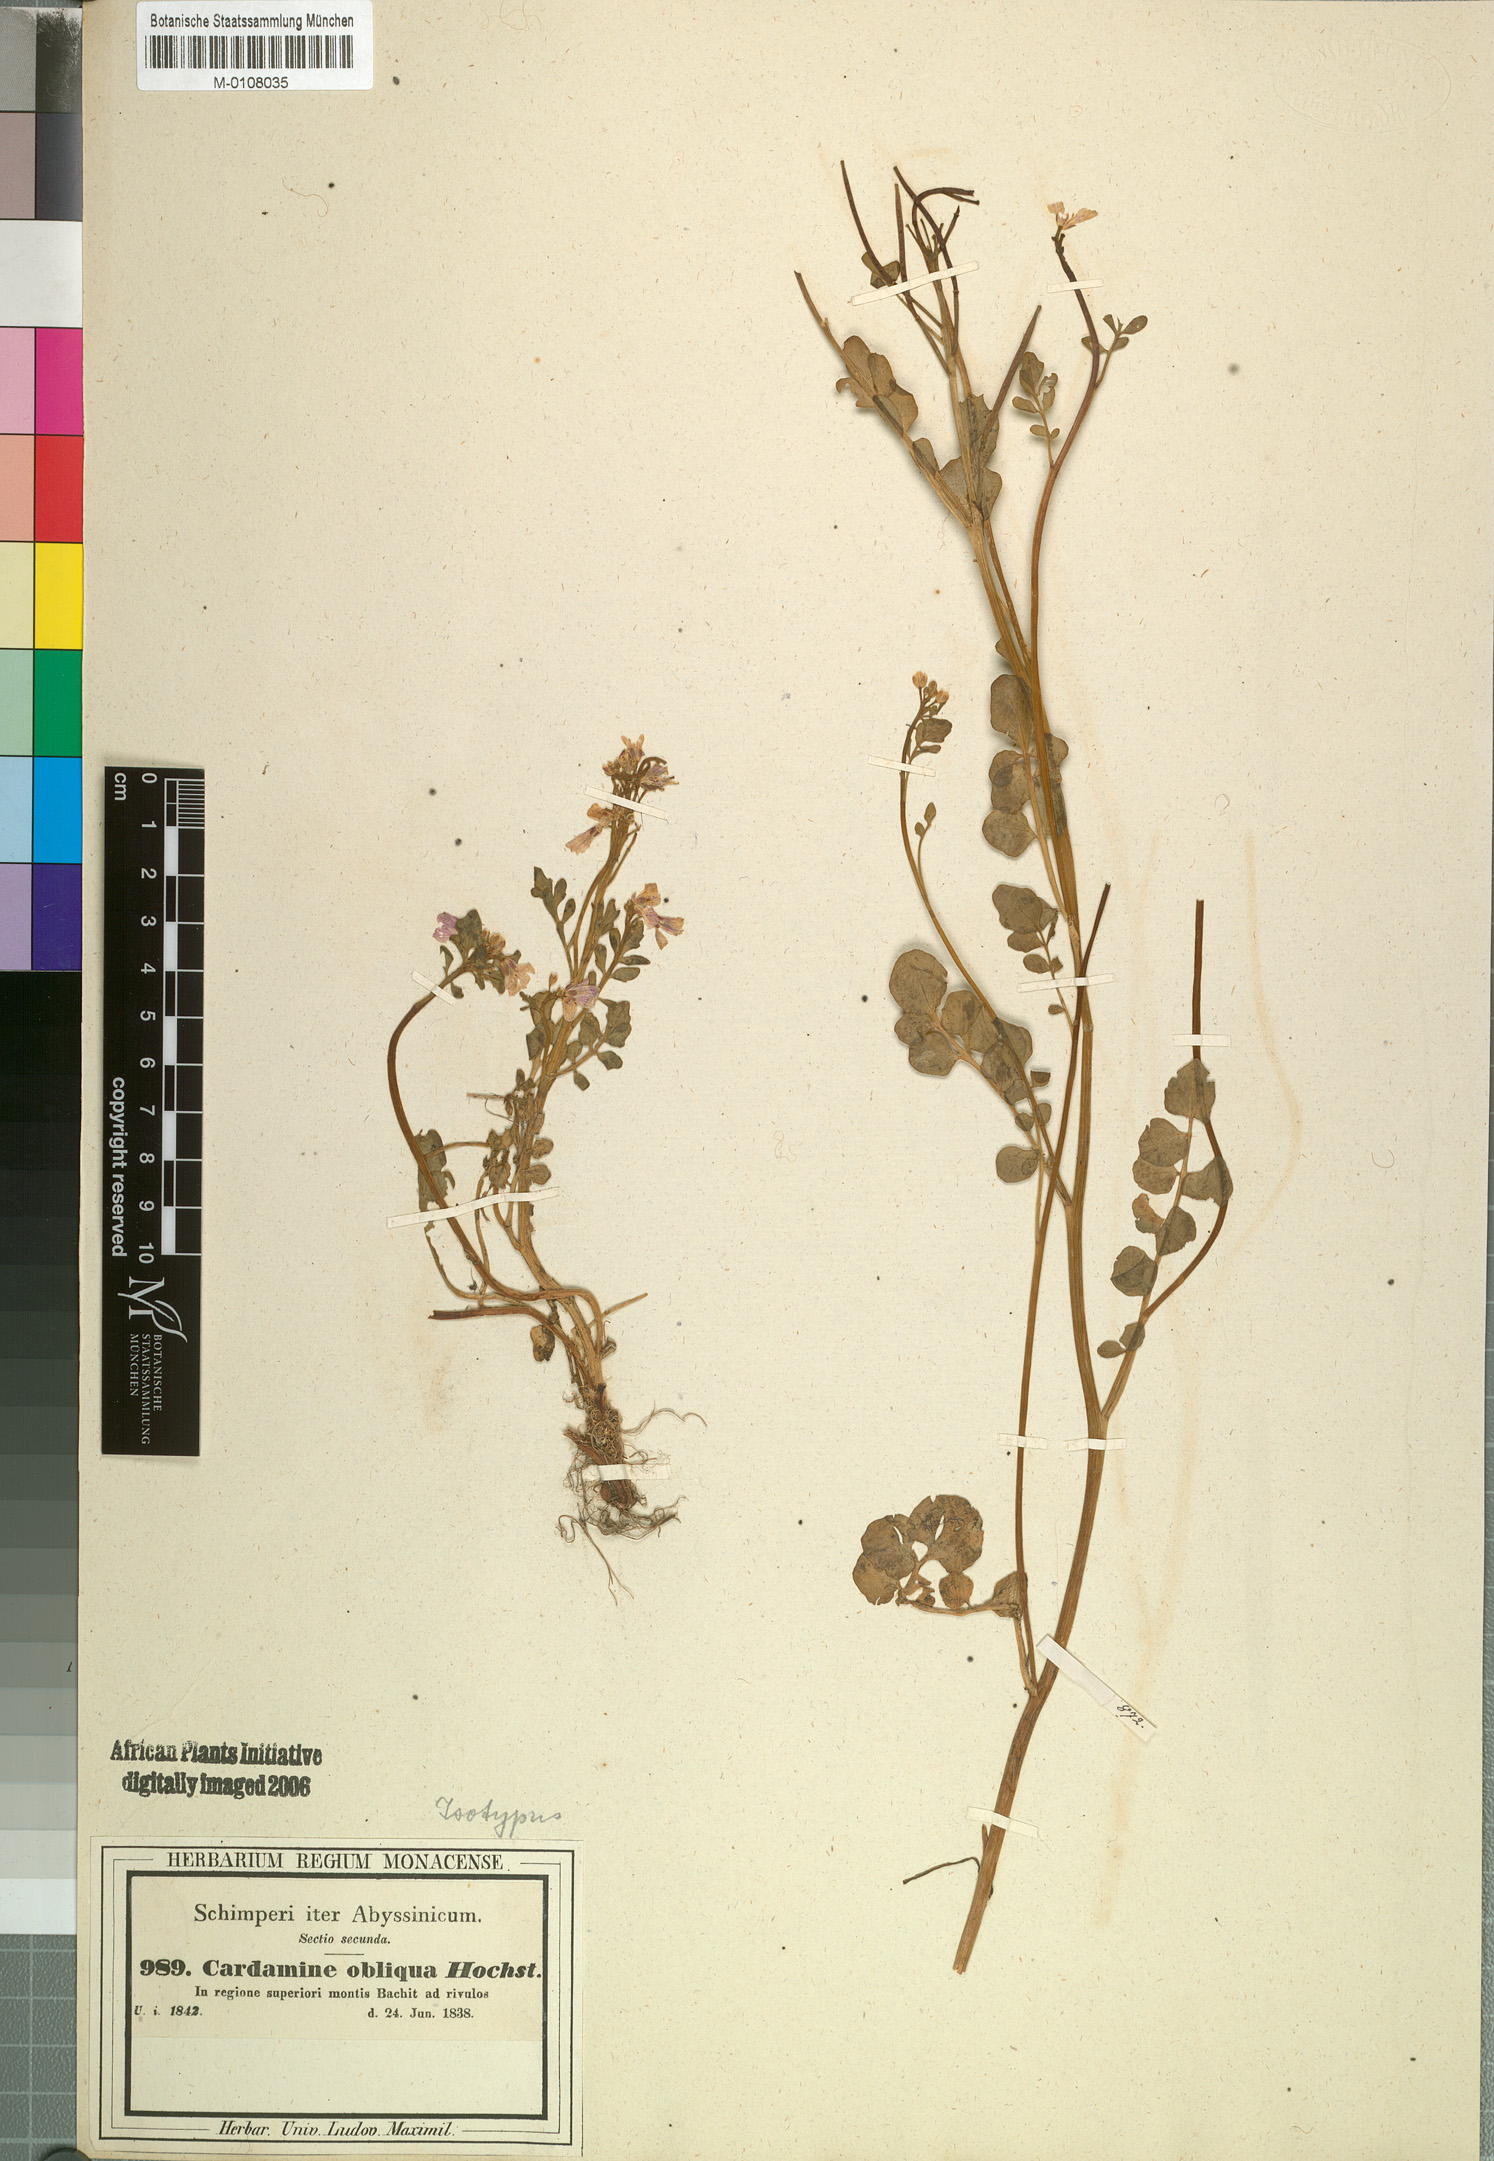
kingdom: Plantae
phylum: Tracheophyta
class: Magnoliopsida
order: Brassicales
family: Brassicaceae
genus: Cardamine
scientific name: Cardamine obliqua
